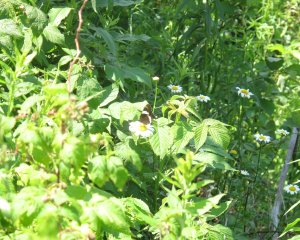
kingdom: Animalia
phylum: Arthropoda
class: Insecta
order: Lepidoptera
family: Nymphalidae
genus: Limenitis
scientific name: Limenitis arthemis
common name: Red-spotted Admiral
